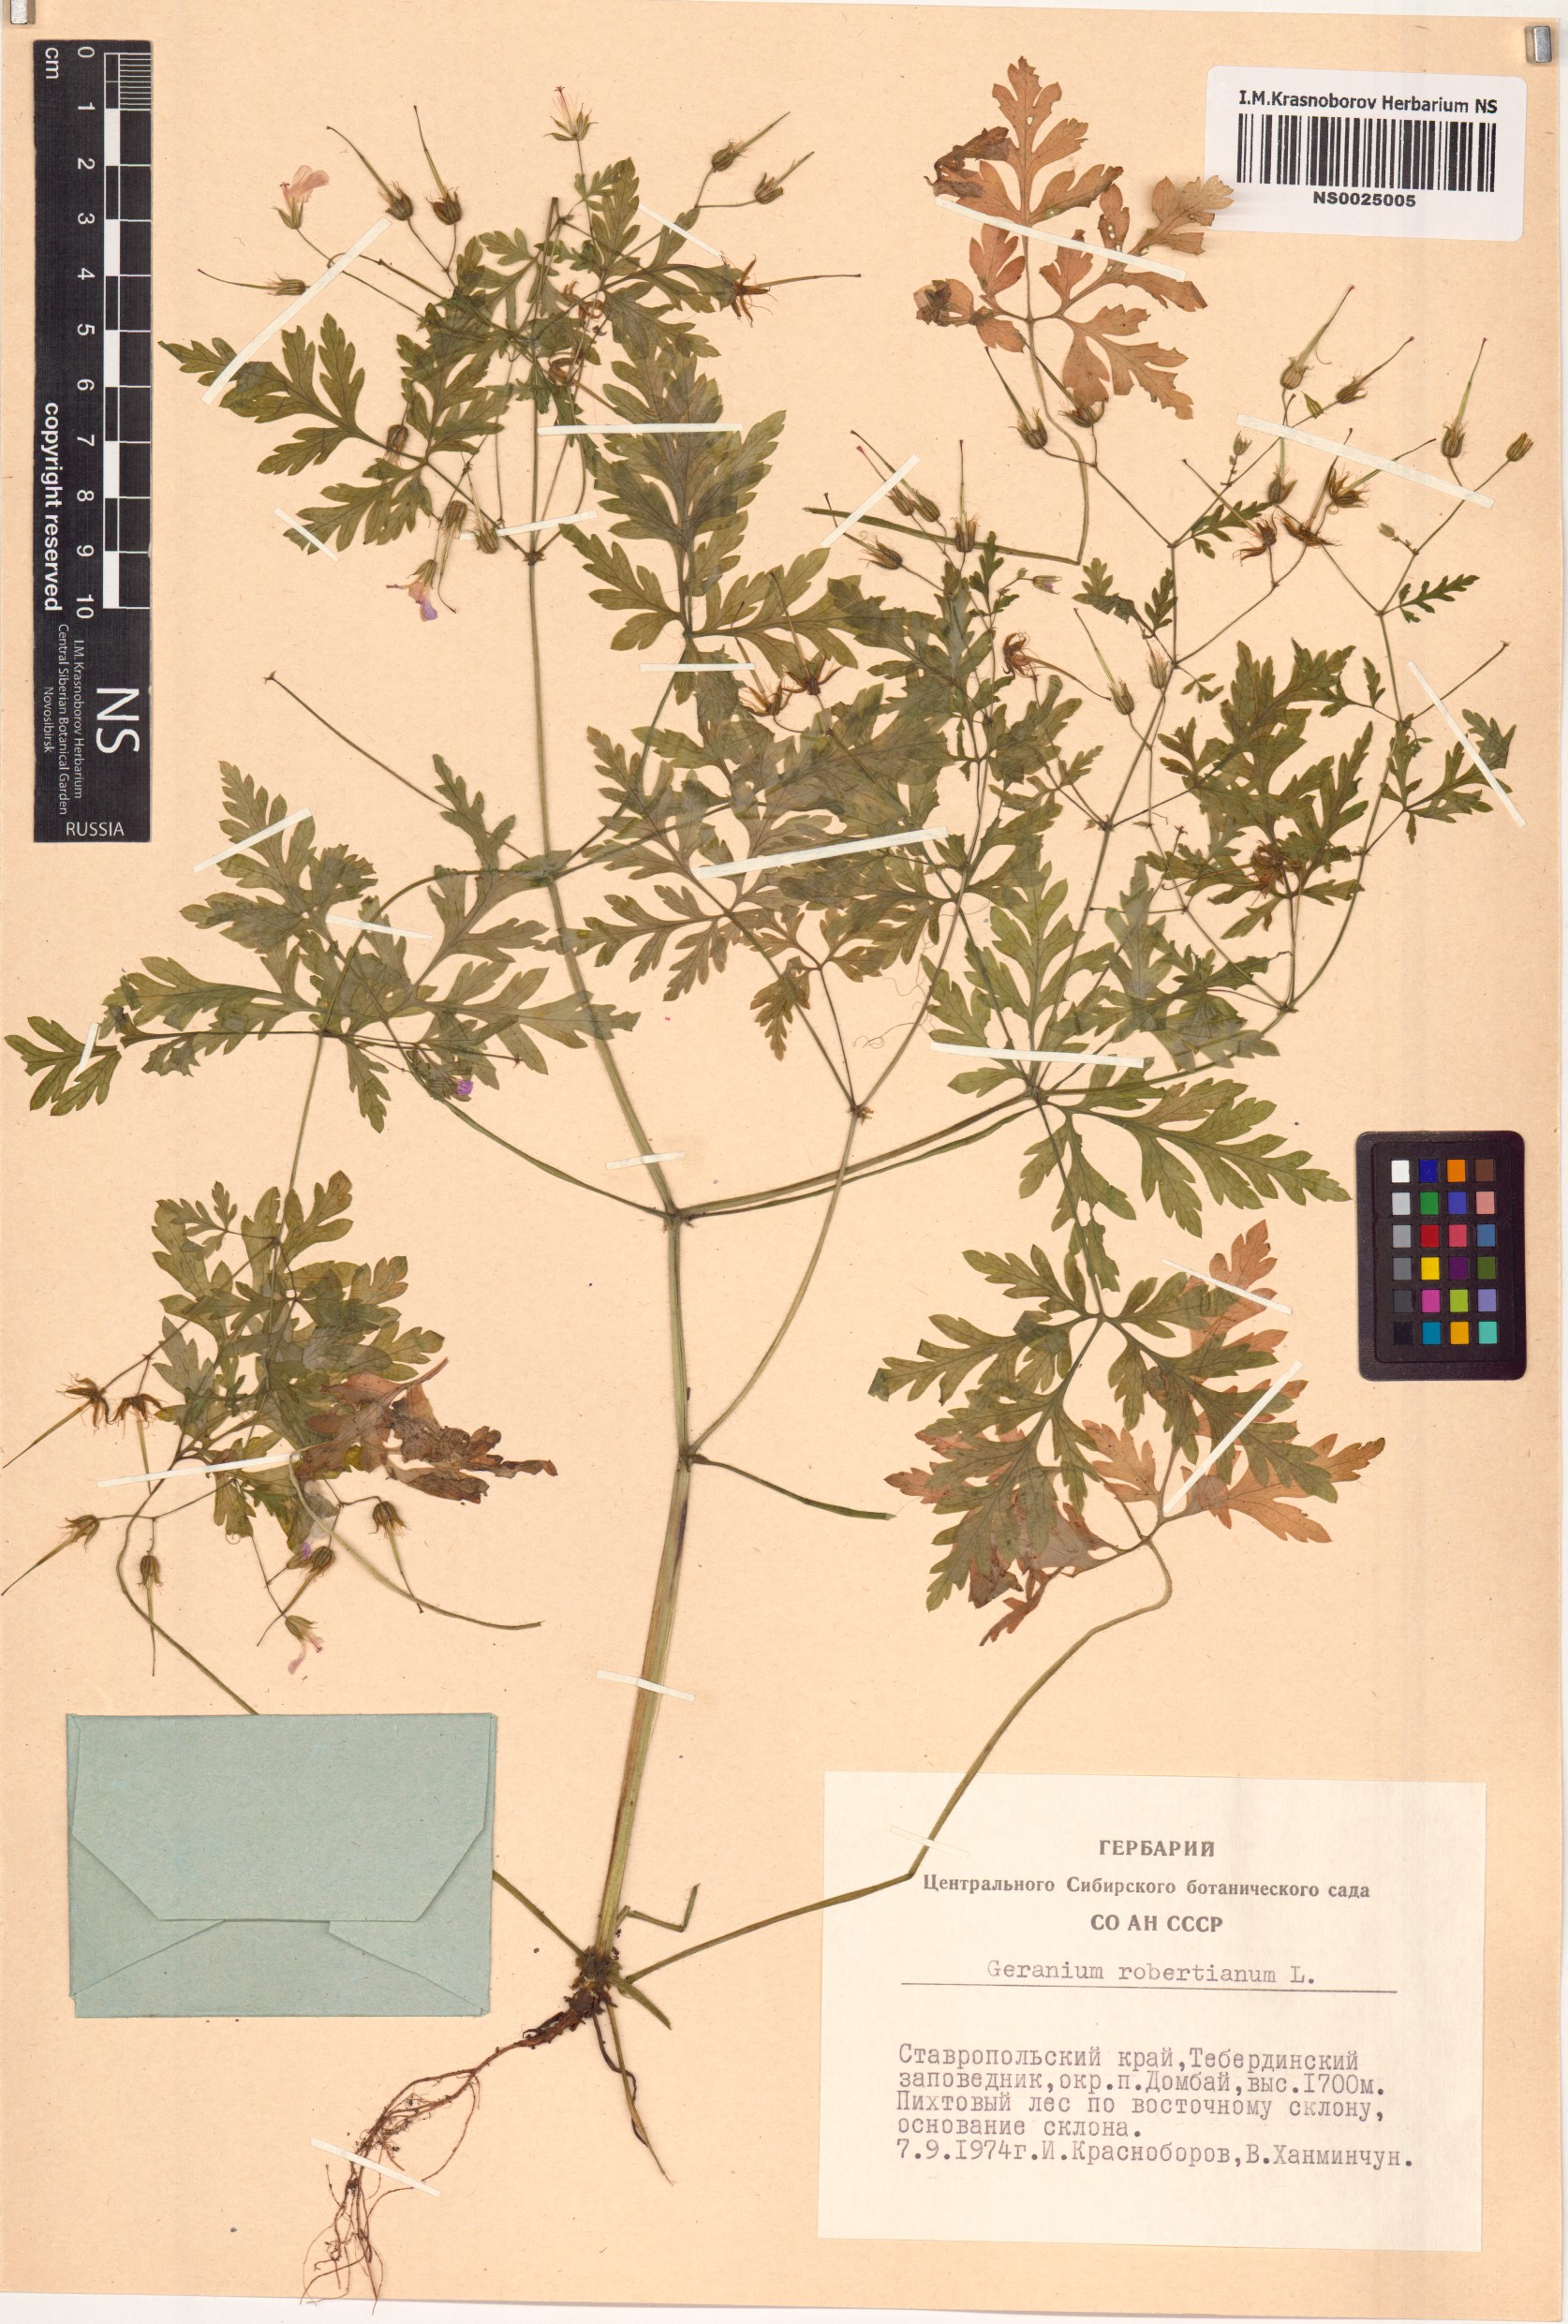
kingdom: Plantae
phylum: Tracheophyta
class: Magnoliopsida
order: Geraniales
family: Geraniaceae
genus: Geranium
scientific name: Geranium robertianum
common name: Herb-robert
